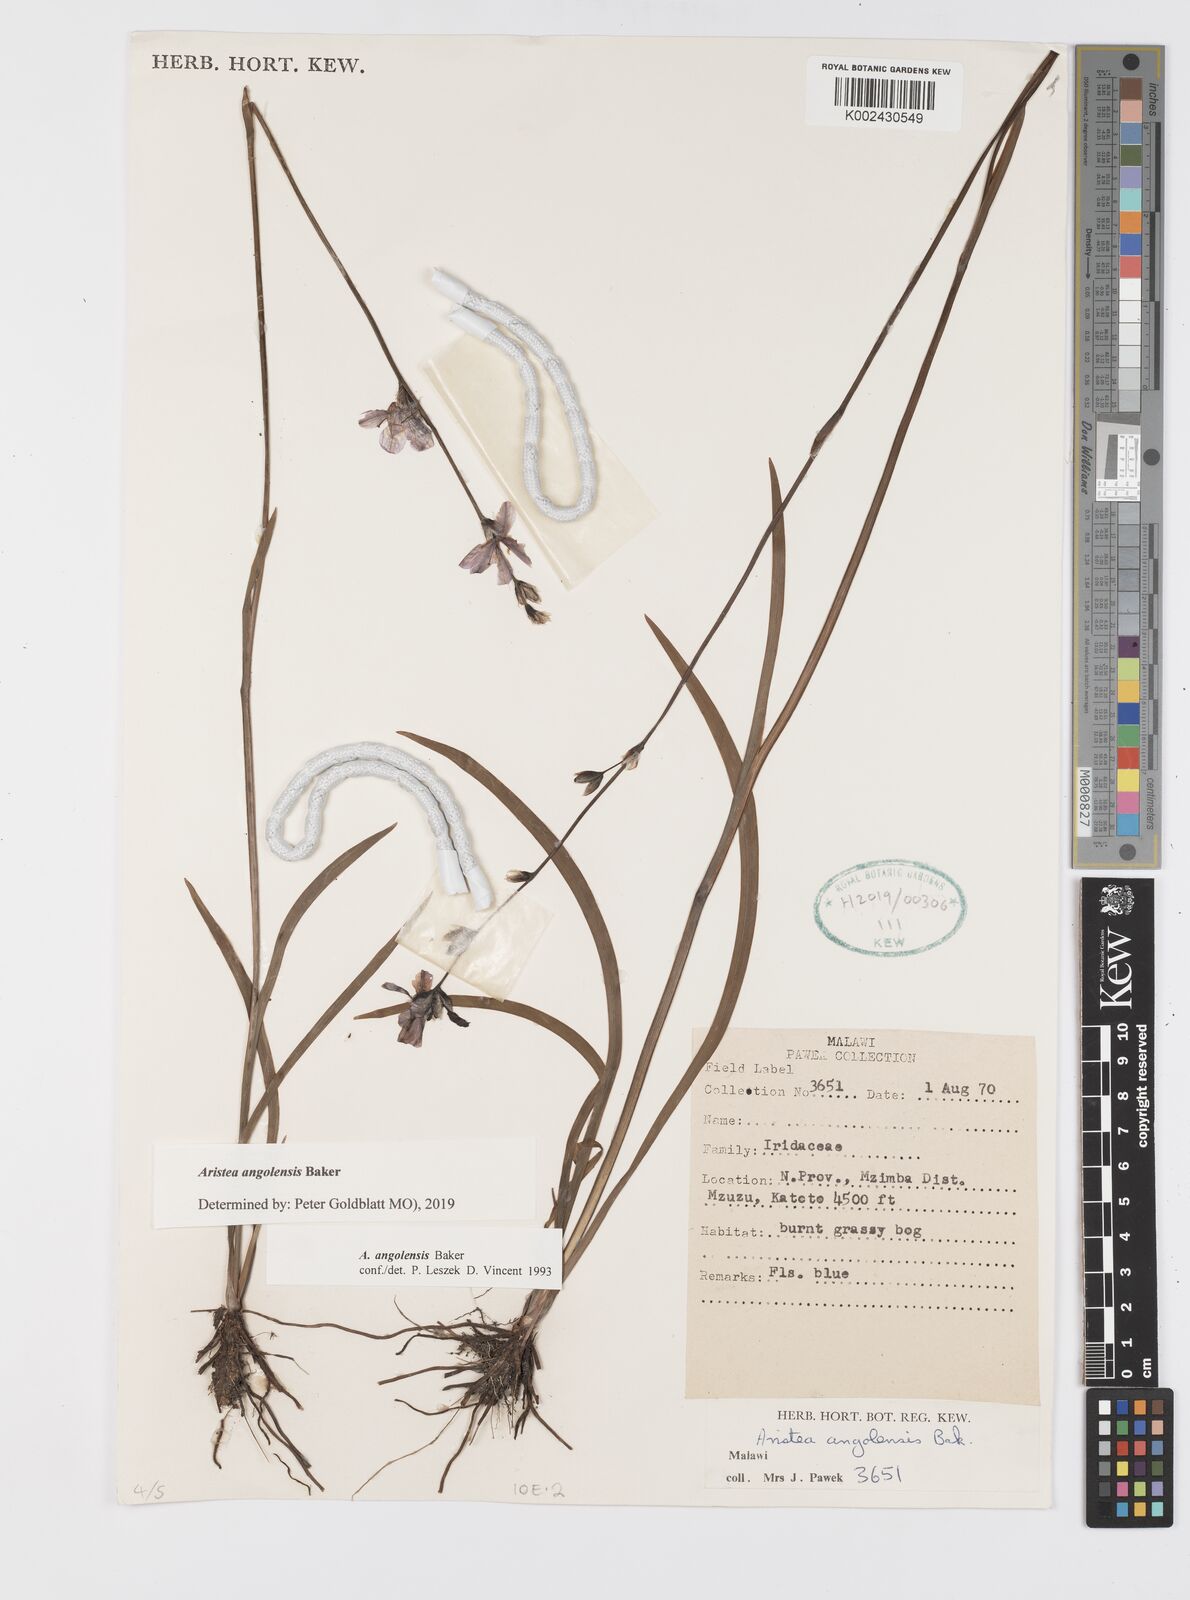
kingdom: Plantae
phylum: Tracheophyta
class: Liliopsida
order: Asparagales
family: Iridaceae
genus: Aristea
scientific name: Aristea angolensis
